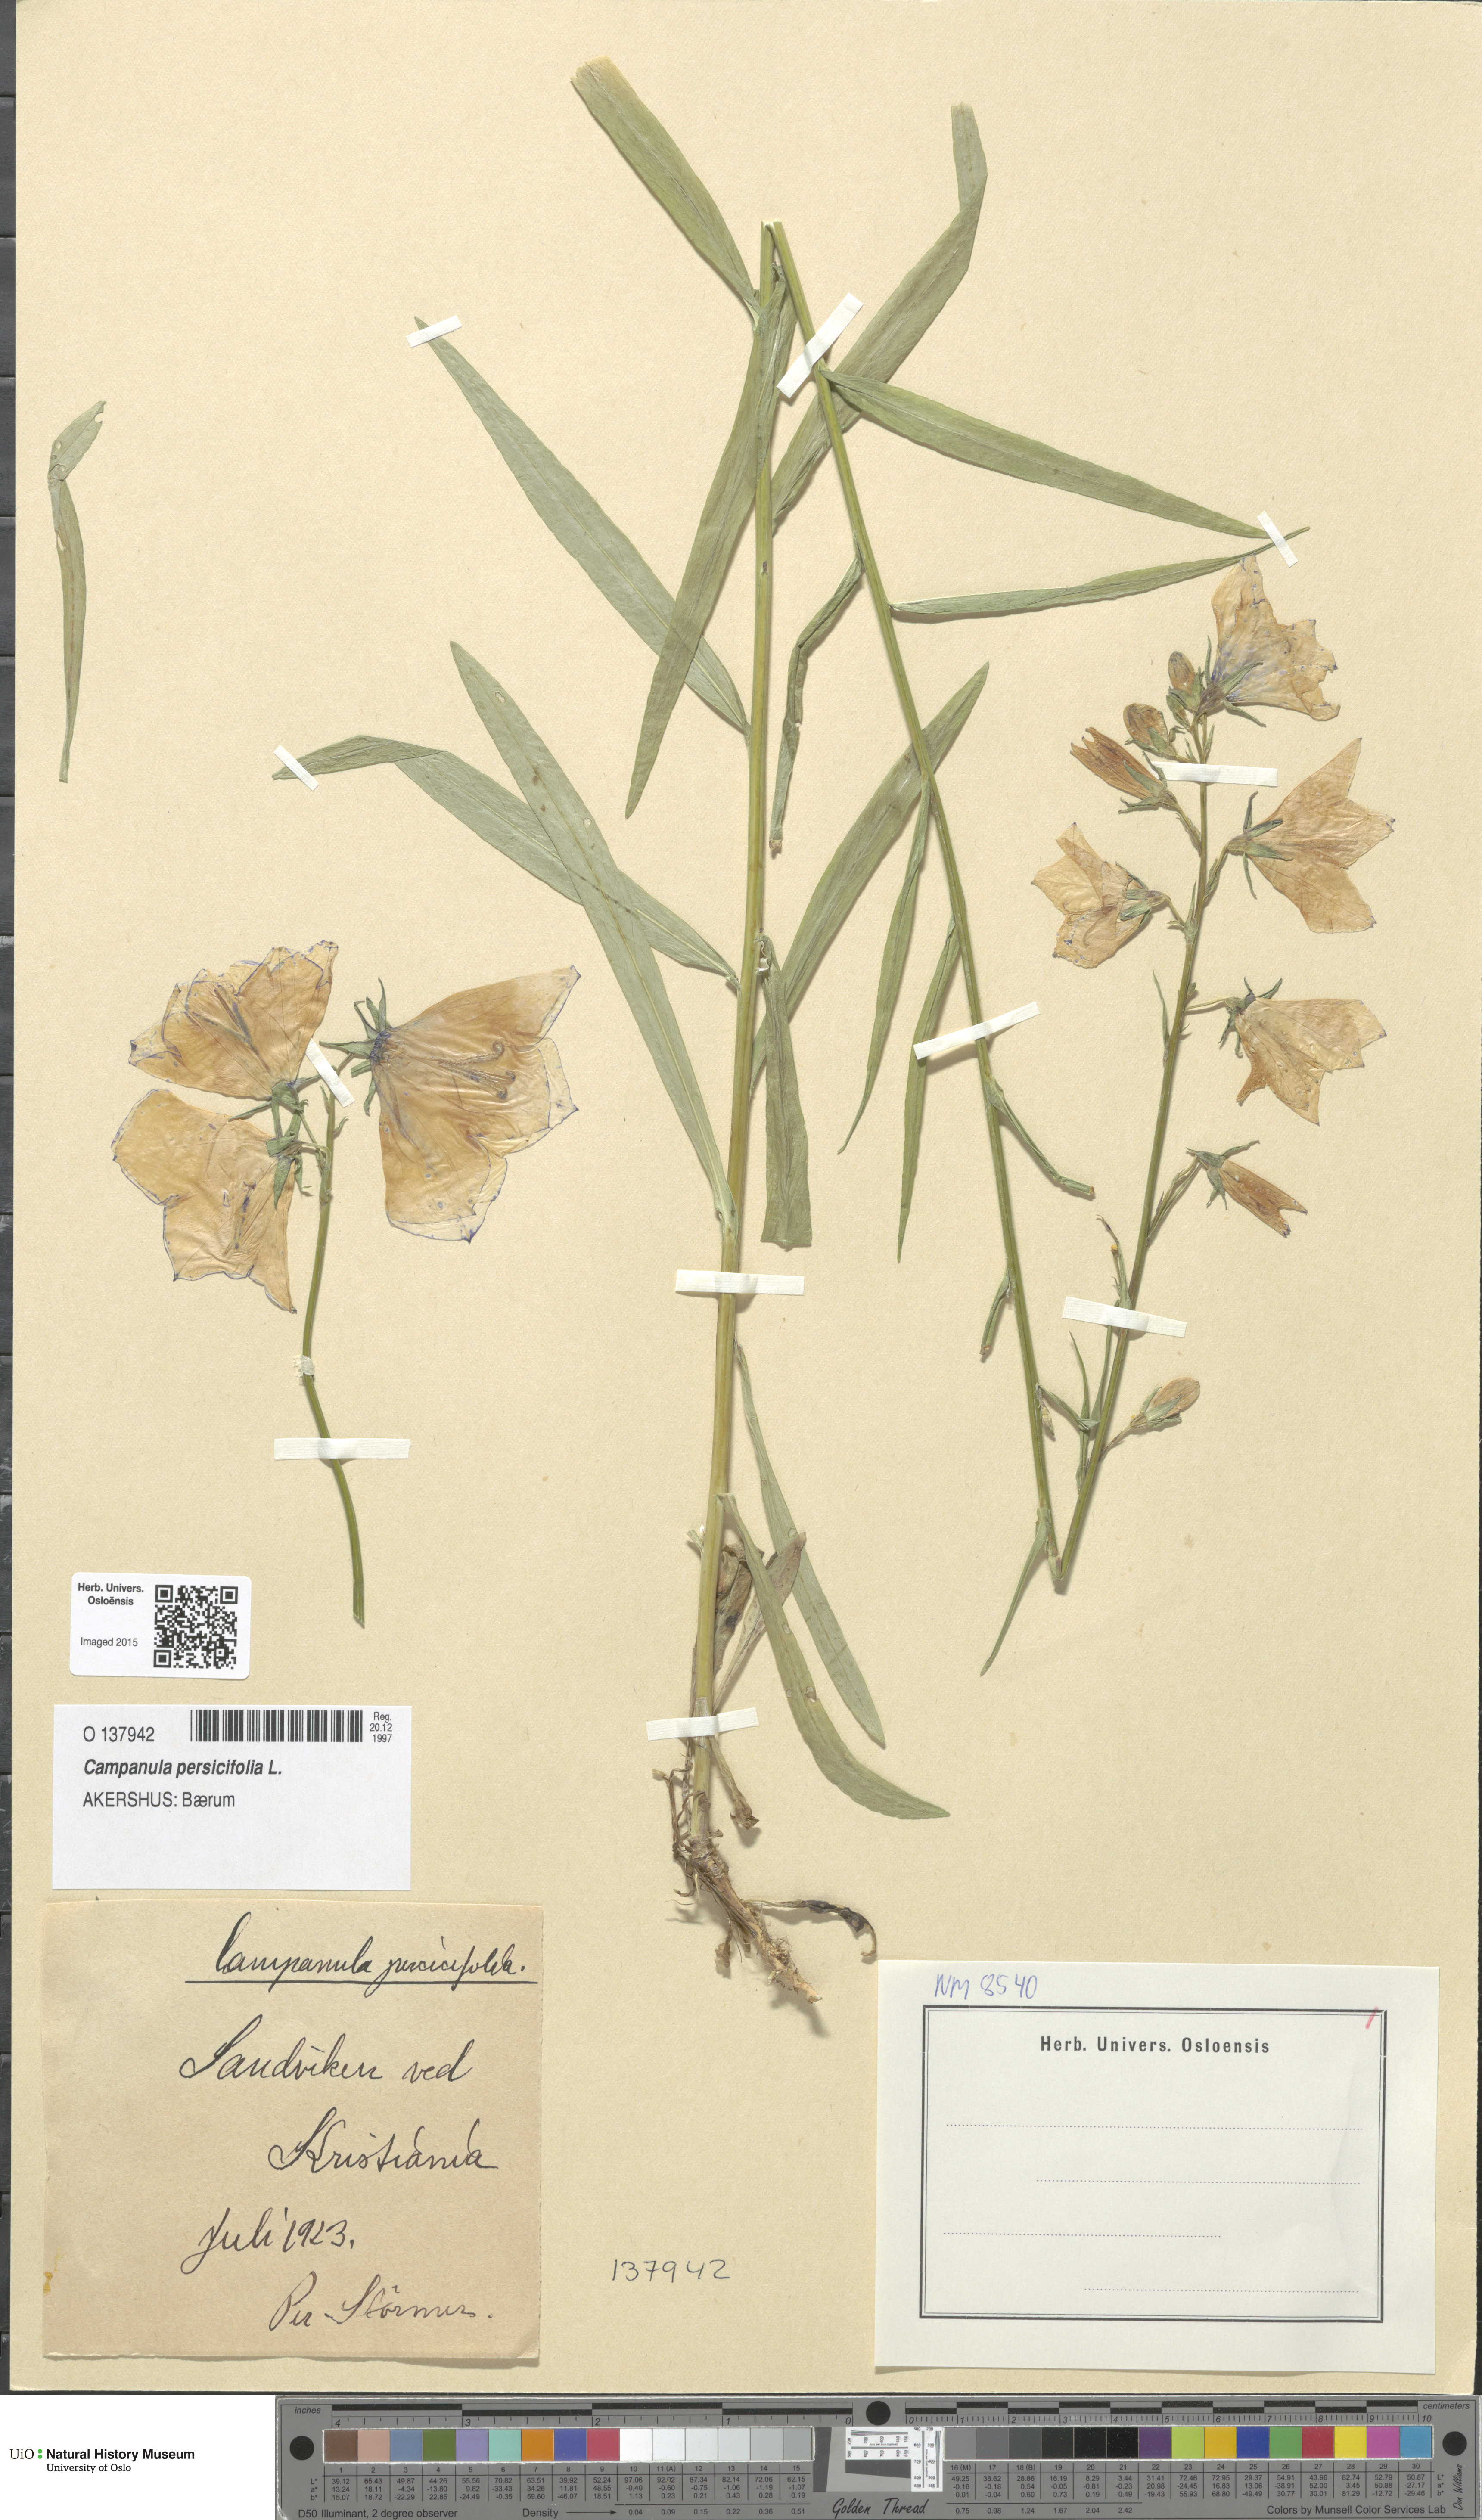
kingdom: Plantae
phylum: Tracheophyta
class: Magnoliopsida
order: Asterales
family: Campanulaceae
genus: Campanula
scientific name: Campanula persicifolia
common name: Peach-leaved bellflower
